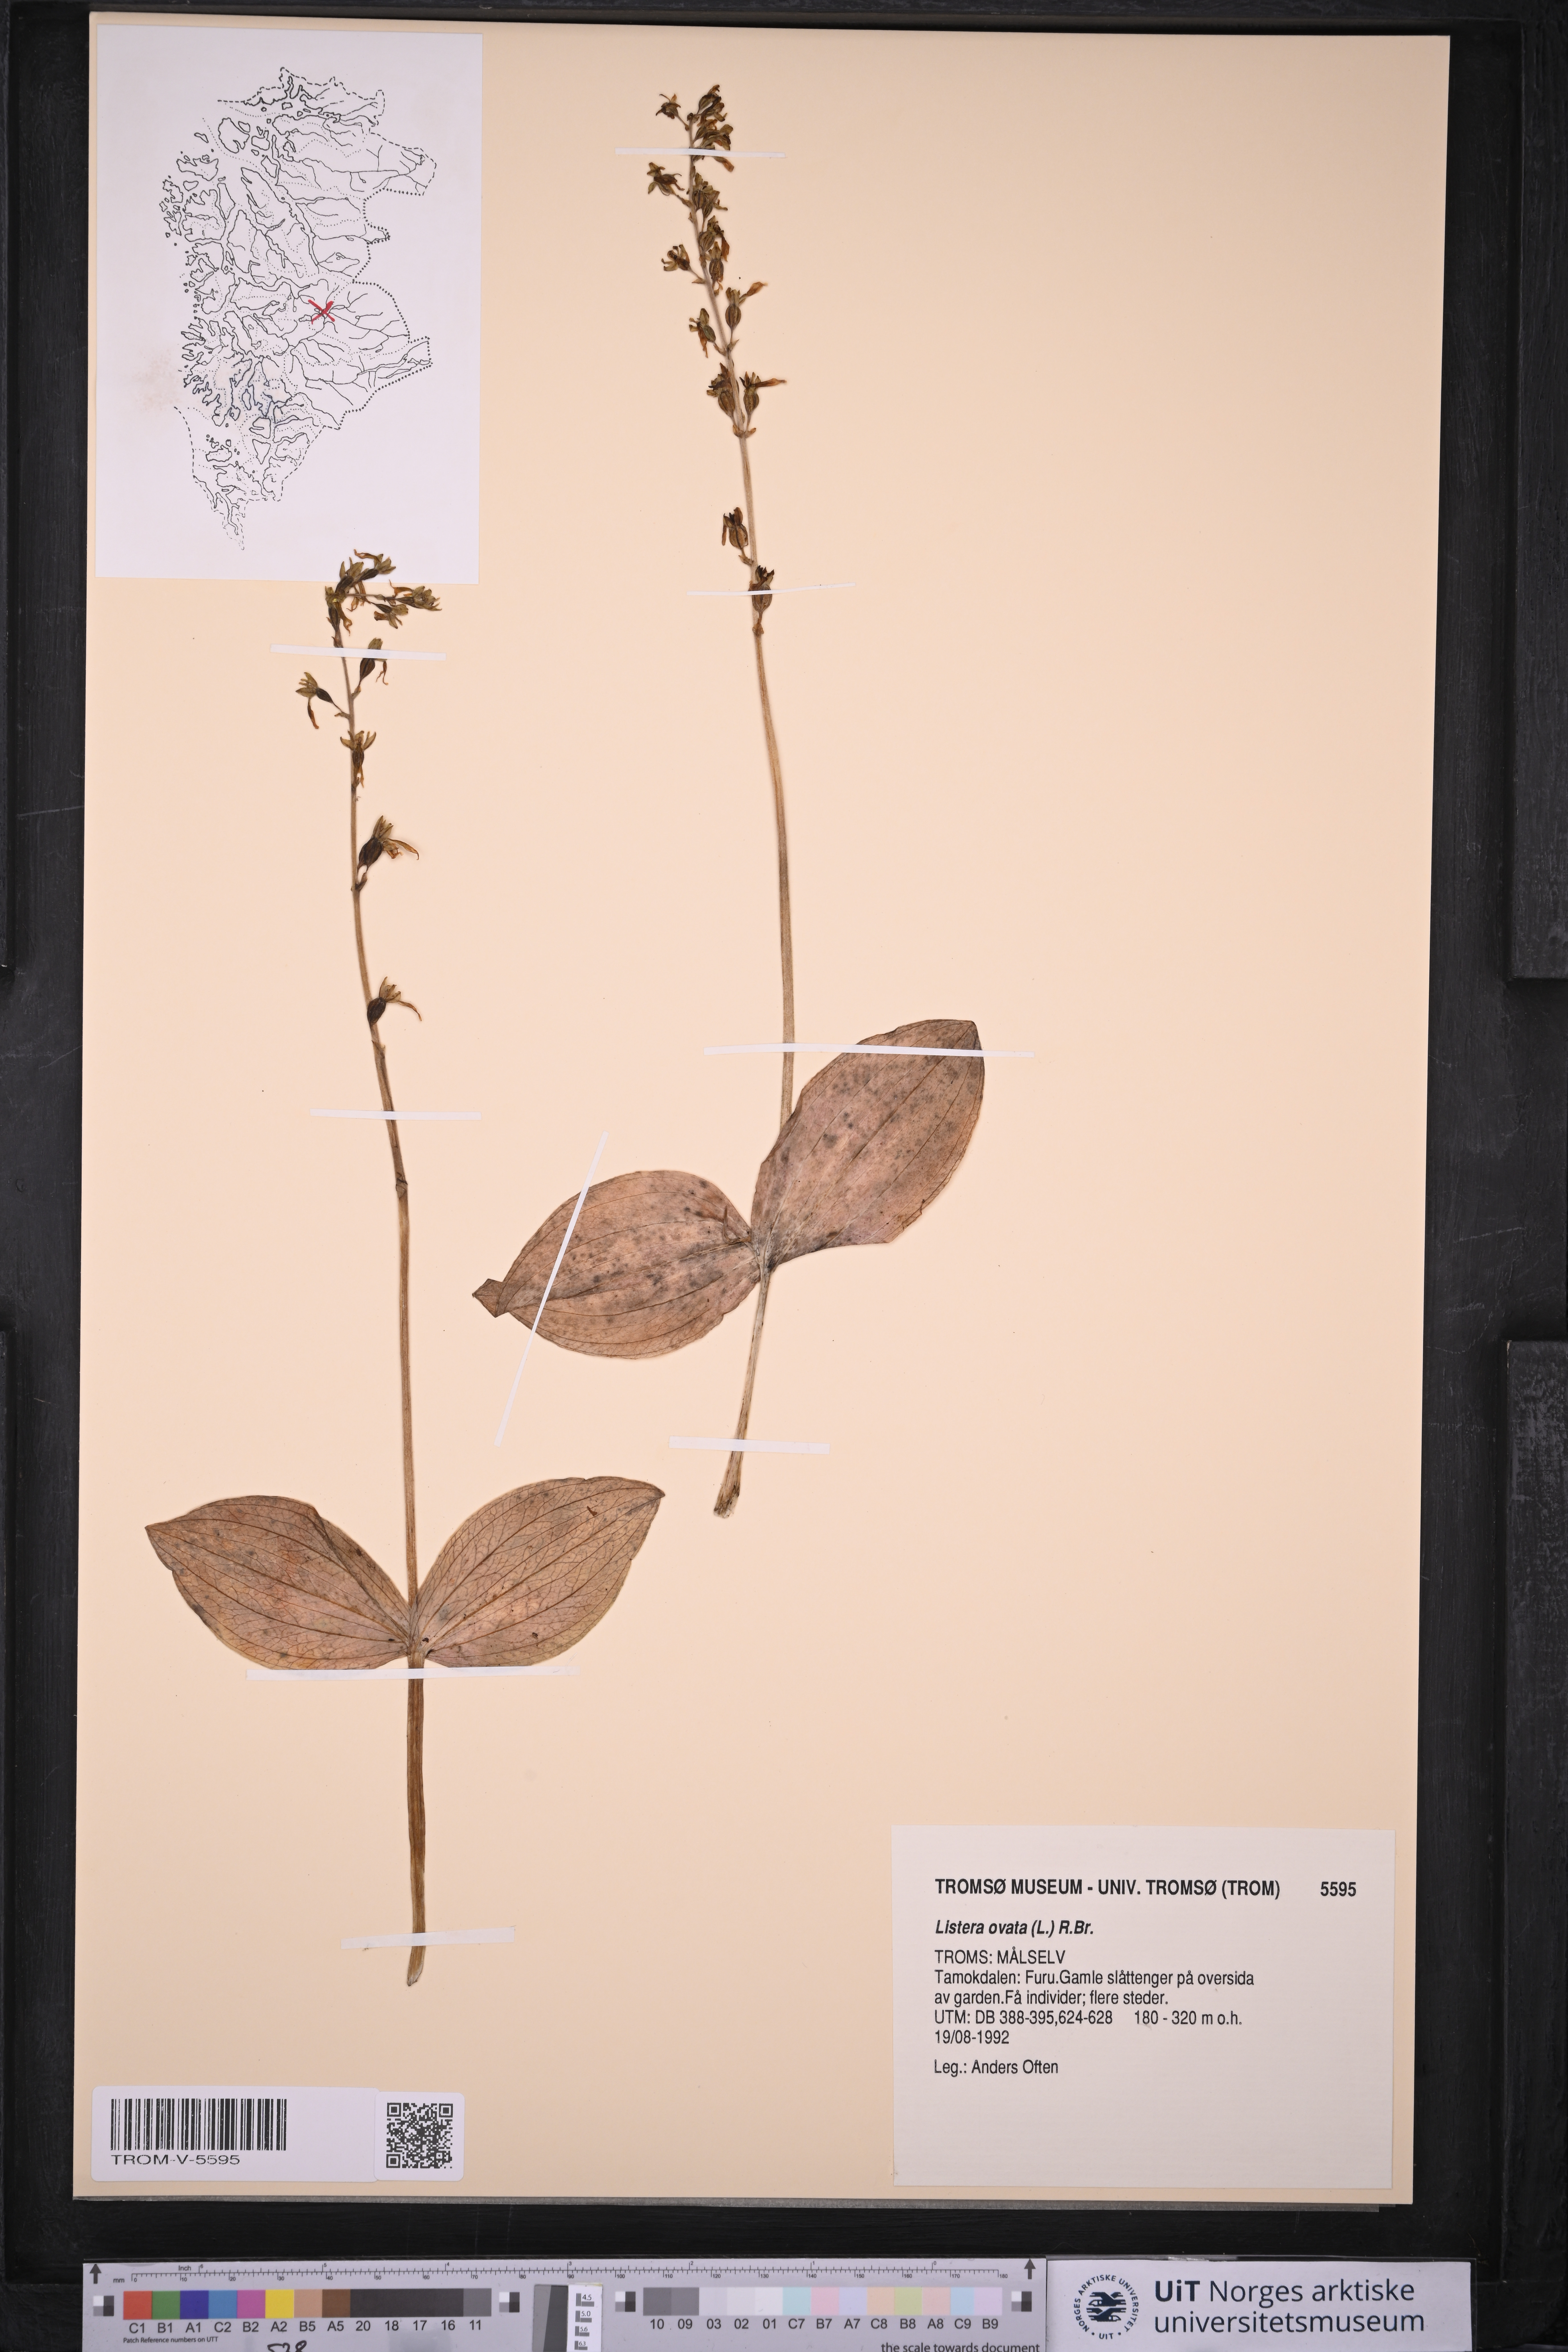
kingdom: Plantae
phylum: Tracheophyta
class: Liliopsida
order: Asparagales
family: Orchidaceae
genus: Neottia
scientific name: Neottia ovata
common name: Common twayblade
